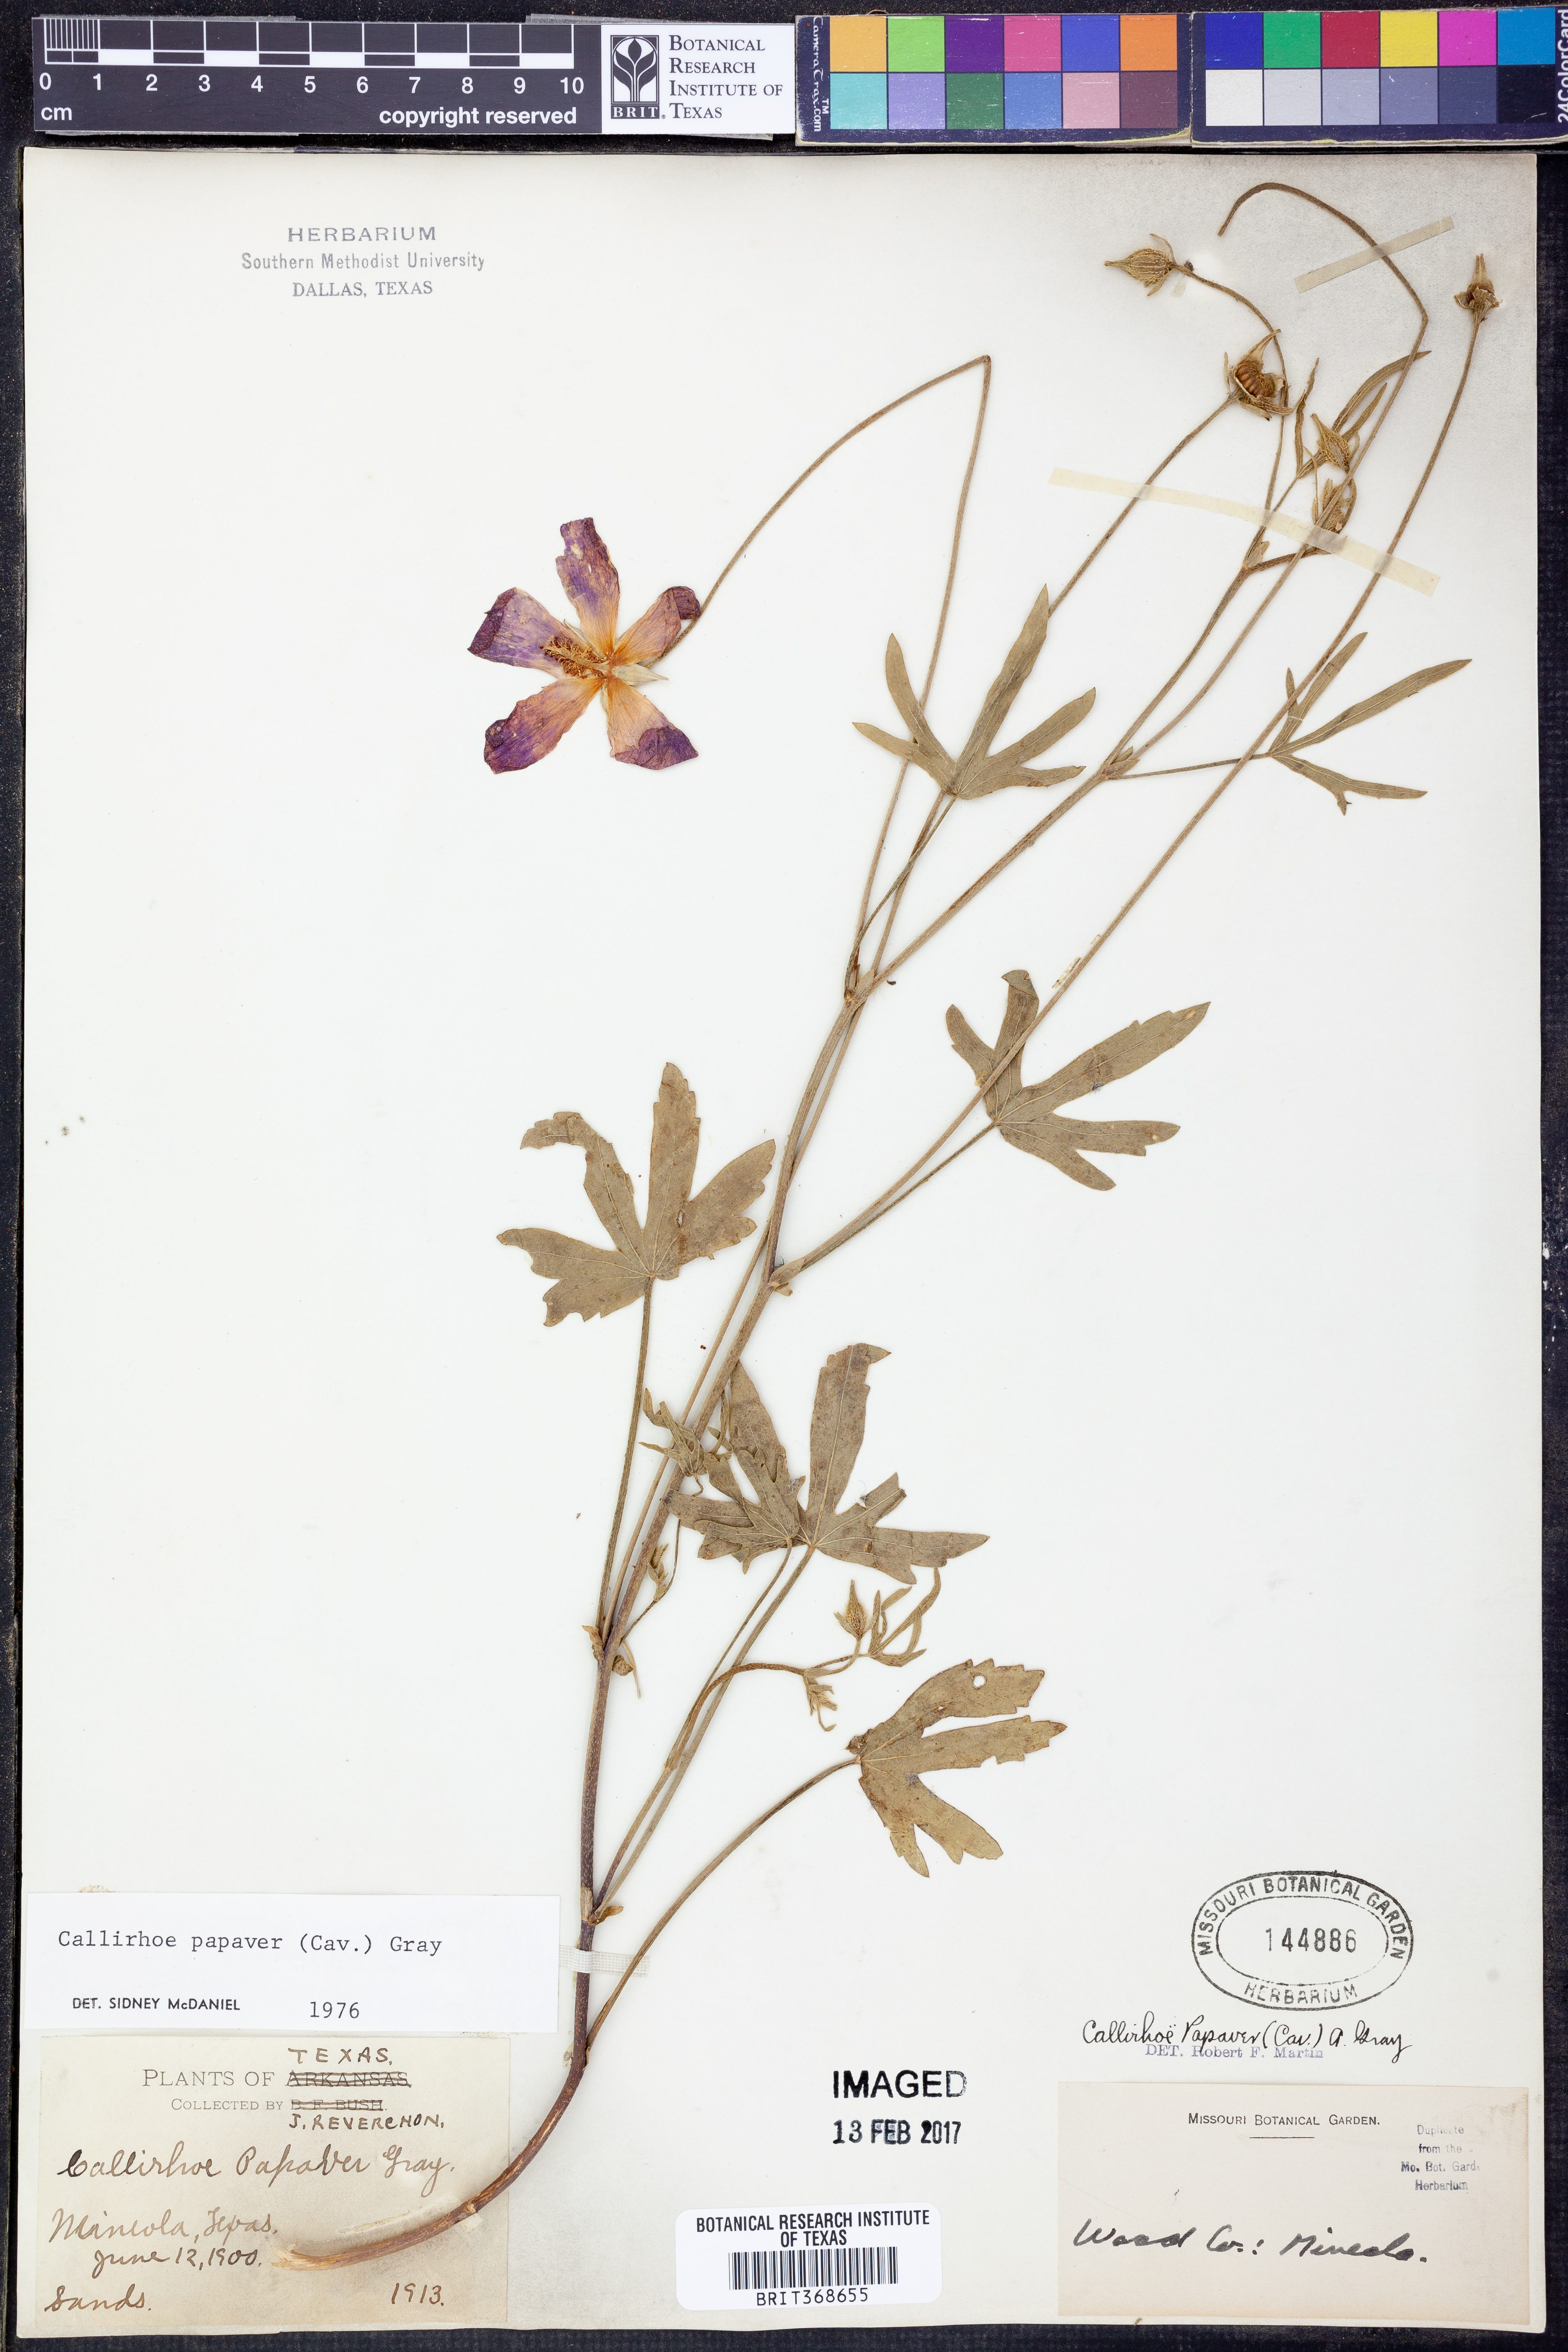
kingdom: Plantae
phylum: Tracheophyta
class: Magnoliopsida
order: Malvales
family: Malvaceae
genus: Callirhoe
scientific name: Callirhoe papaver
